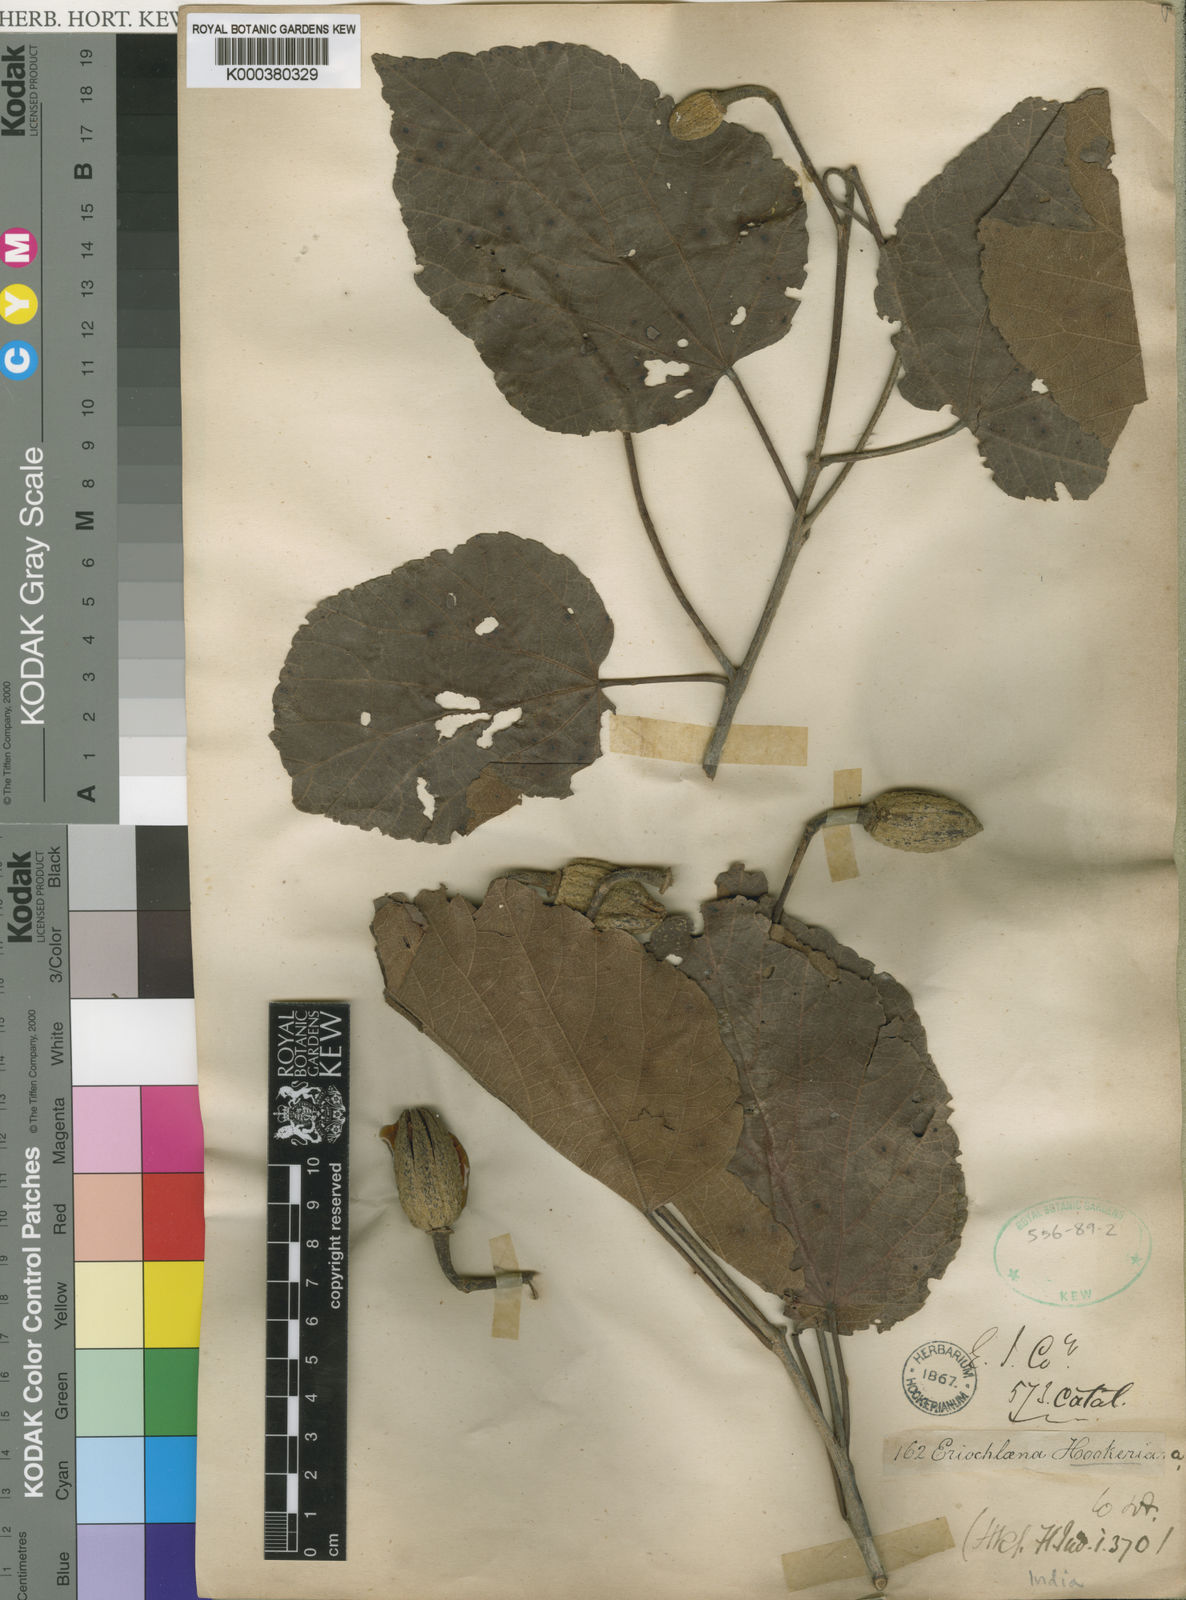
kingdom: Plantae
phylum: Tracheophyta
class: Magnoliopsida
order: Malvales
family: Malvaceae
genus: Eriolaena
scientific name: Eriolaena hookeriana
